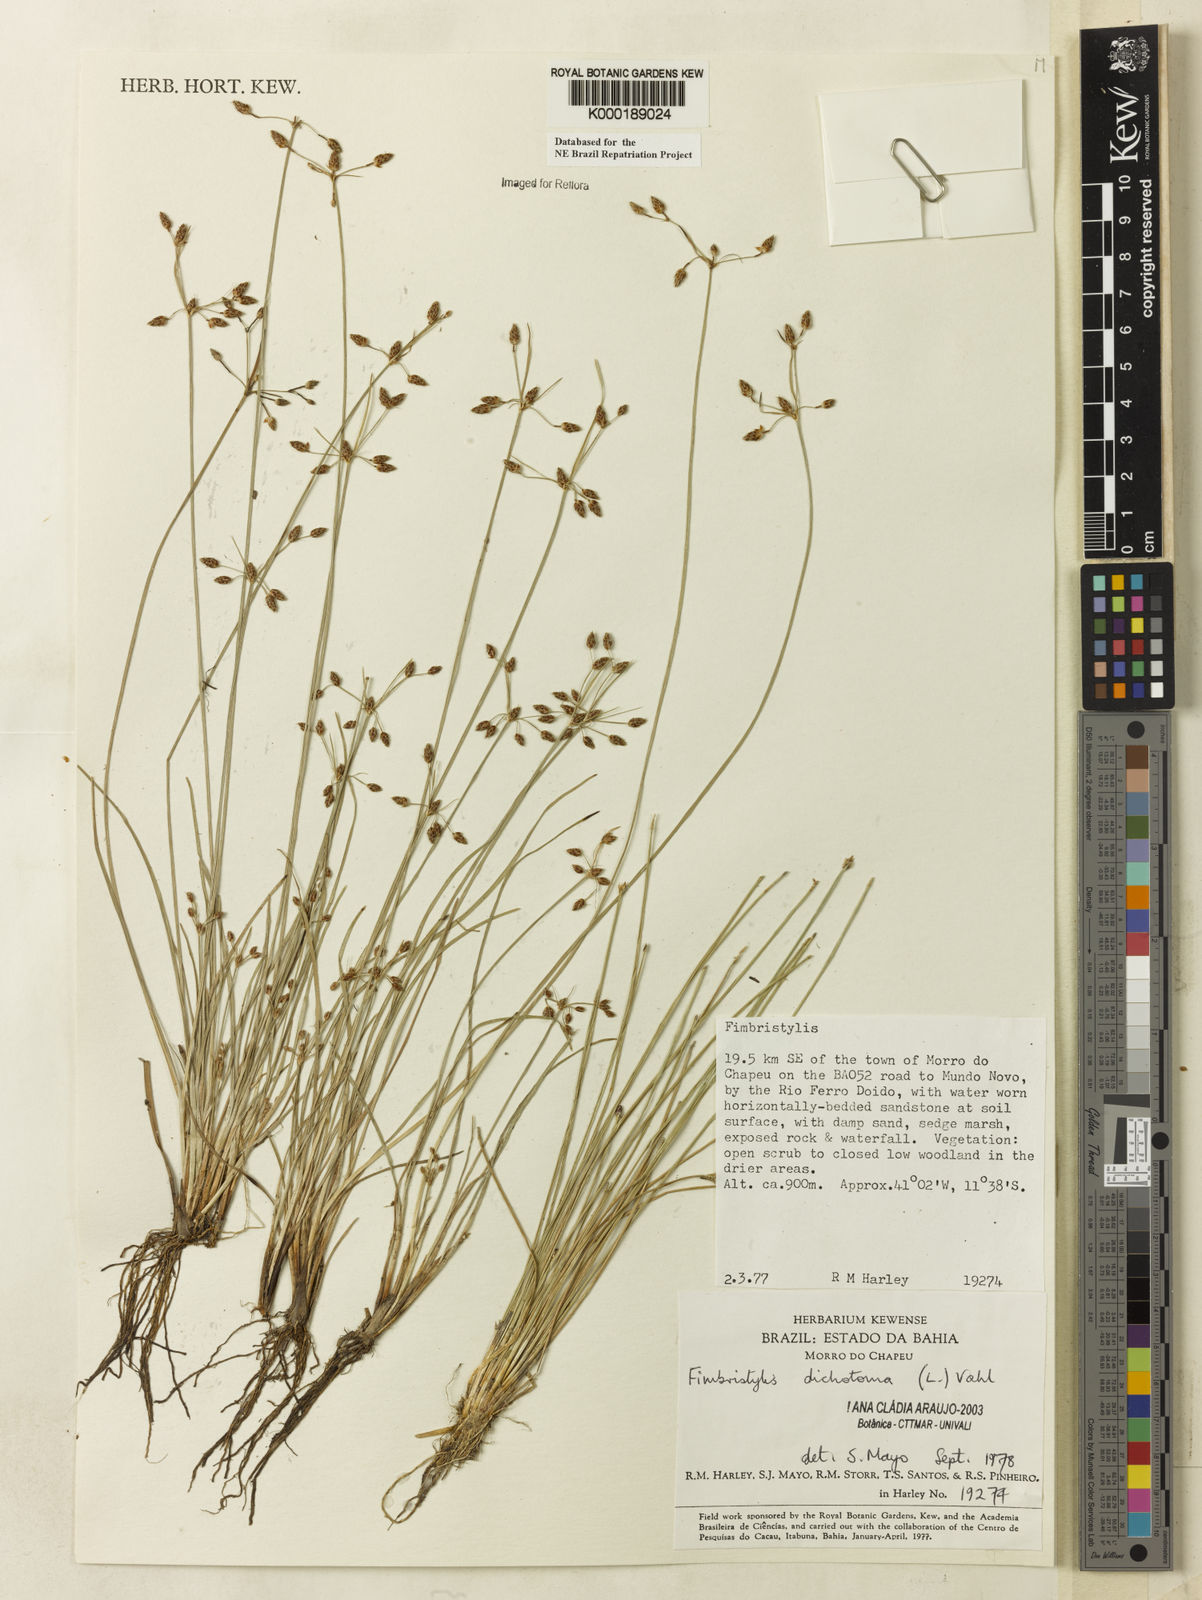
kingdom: Plantae
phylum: Tracheophyta
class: Liliopsida
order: Poales
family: Cyperaceae
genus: Fimbristylis
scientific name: Fimbristylis dichotoma
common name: Forked fimbry
